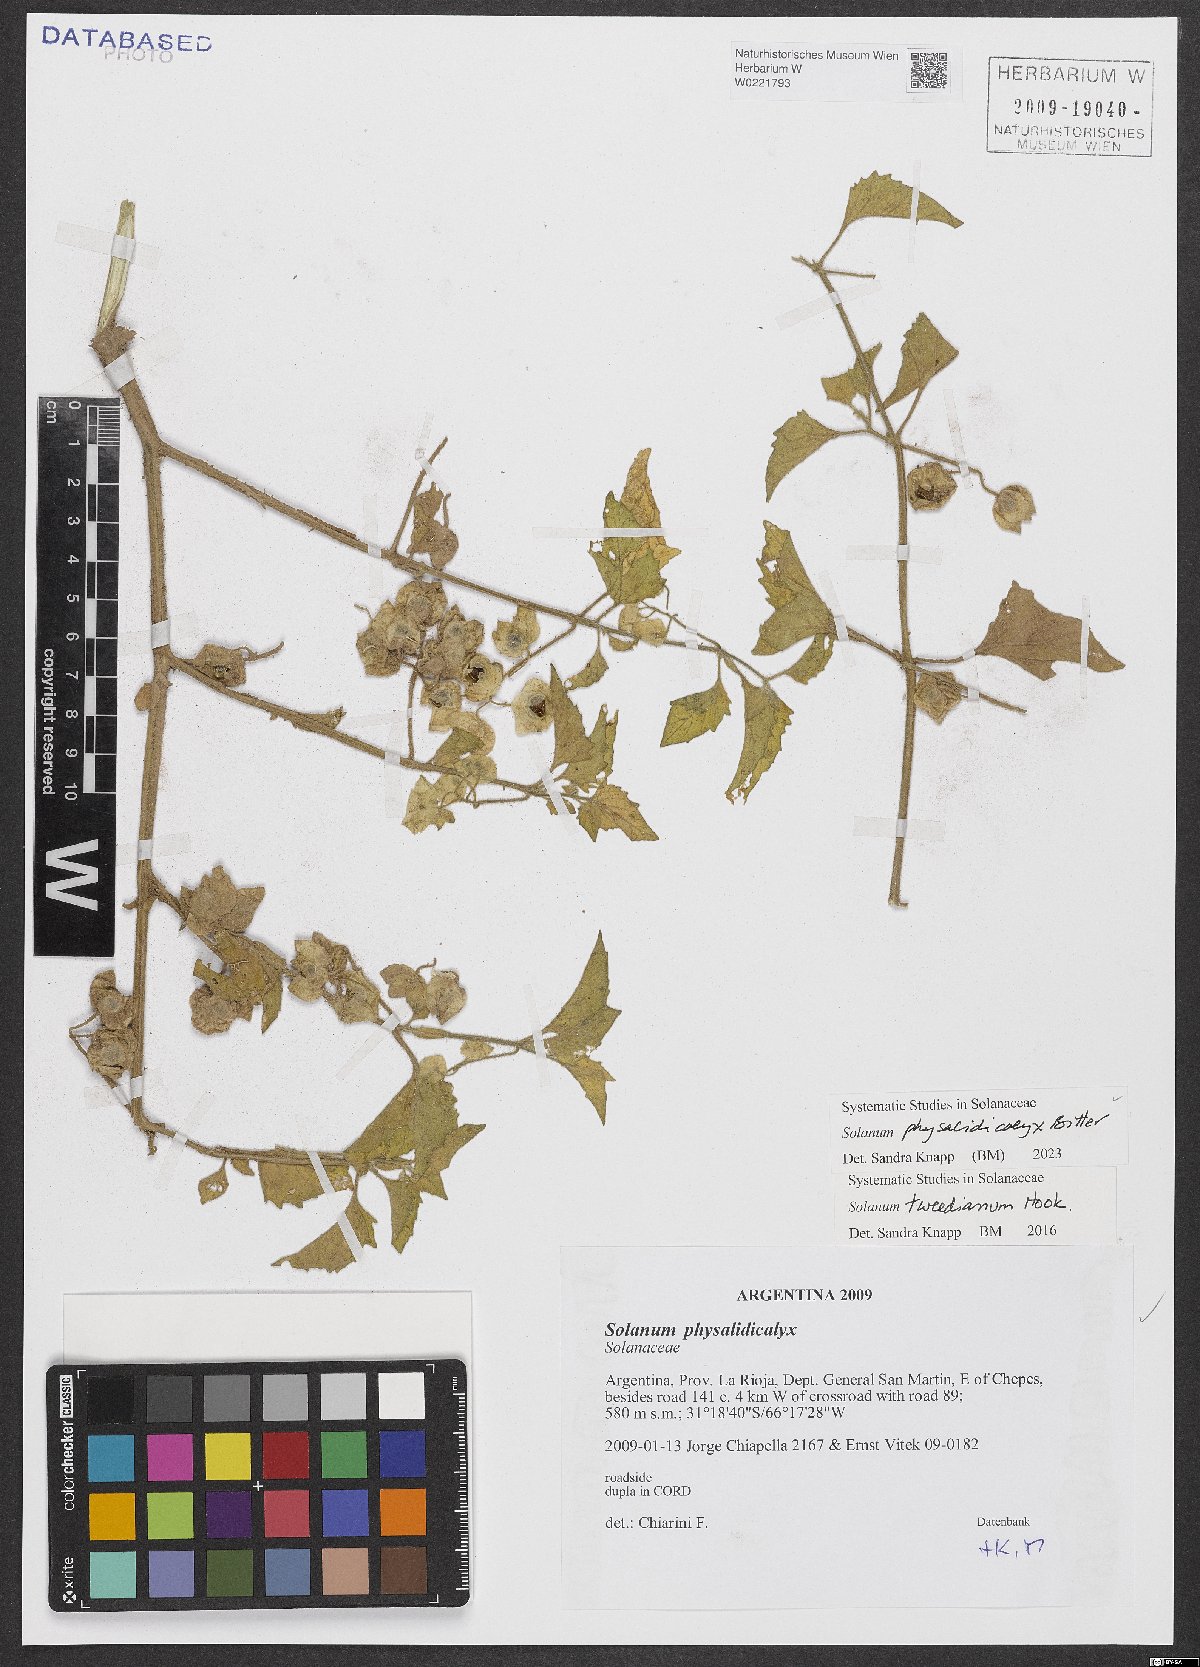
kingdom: Plantae
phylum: Tracheophyta
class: Magnoliopsida
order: Solanales
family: Solanaceae
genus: Solanum
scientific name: Solanum physalidicalyx
